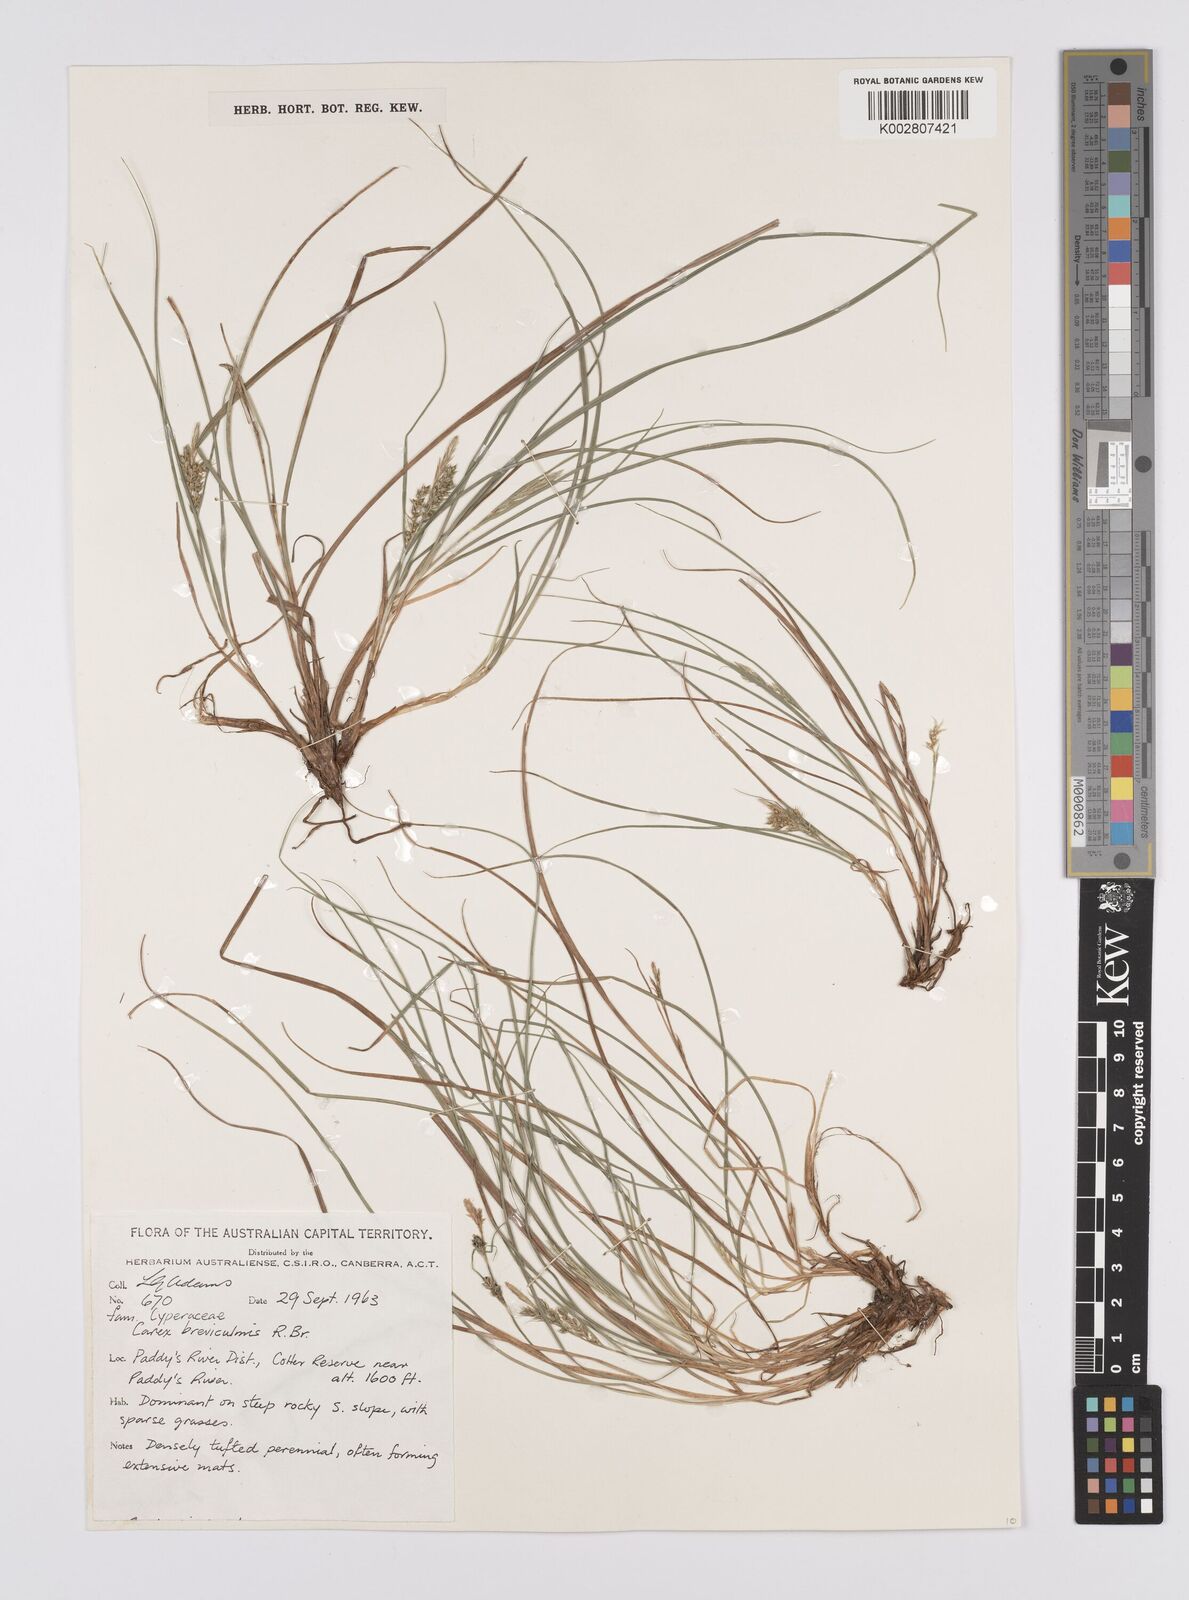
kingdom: Plantae
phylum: Tracheophyta
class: Liliopsida
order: Poales
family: Cyperaceae
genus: Carex
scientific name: Carex breviculmis
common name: Asian shortstem sedge
